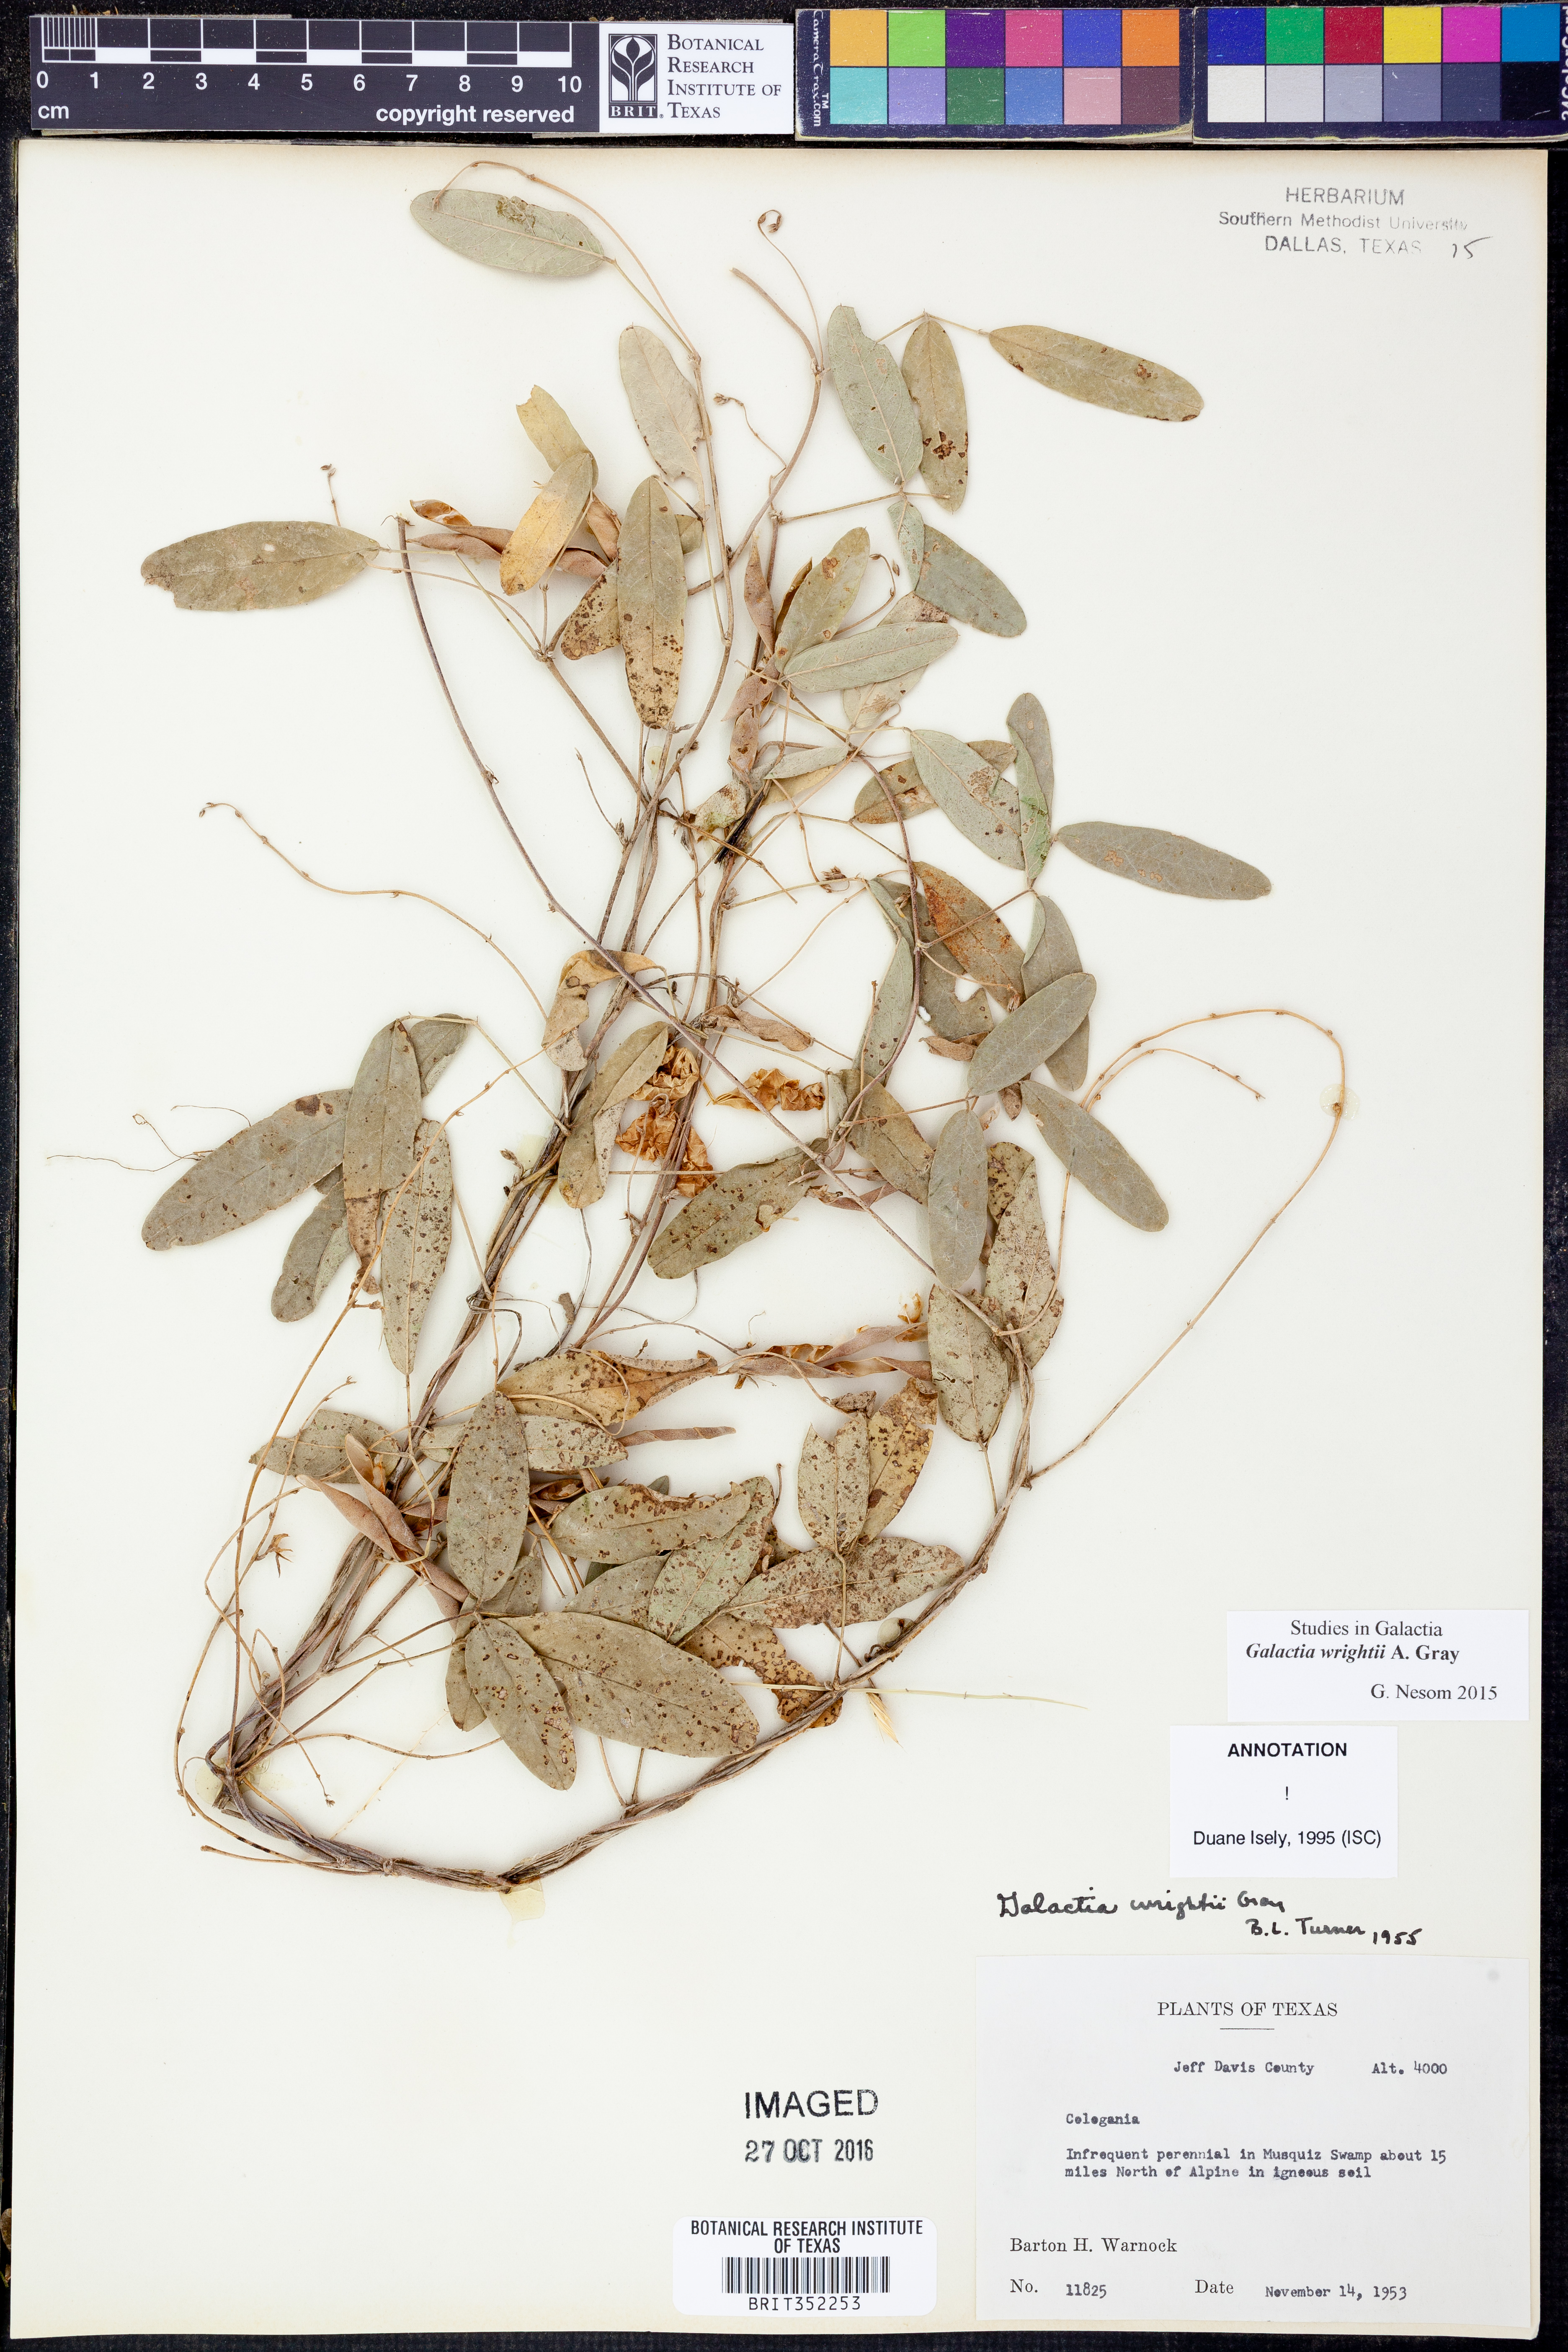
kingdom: Plantae
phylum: Tracheophyta
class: Magnoliopsida
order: Fabales
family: Fabaceae
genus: Galactia
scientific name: Galactia wrightii
